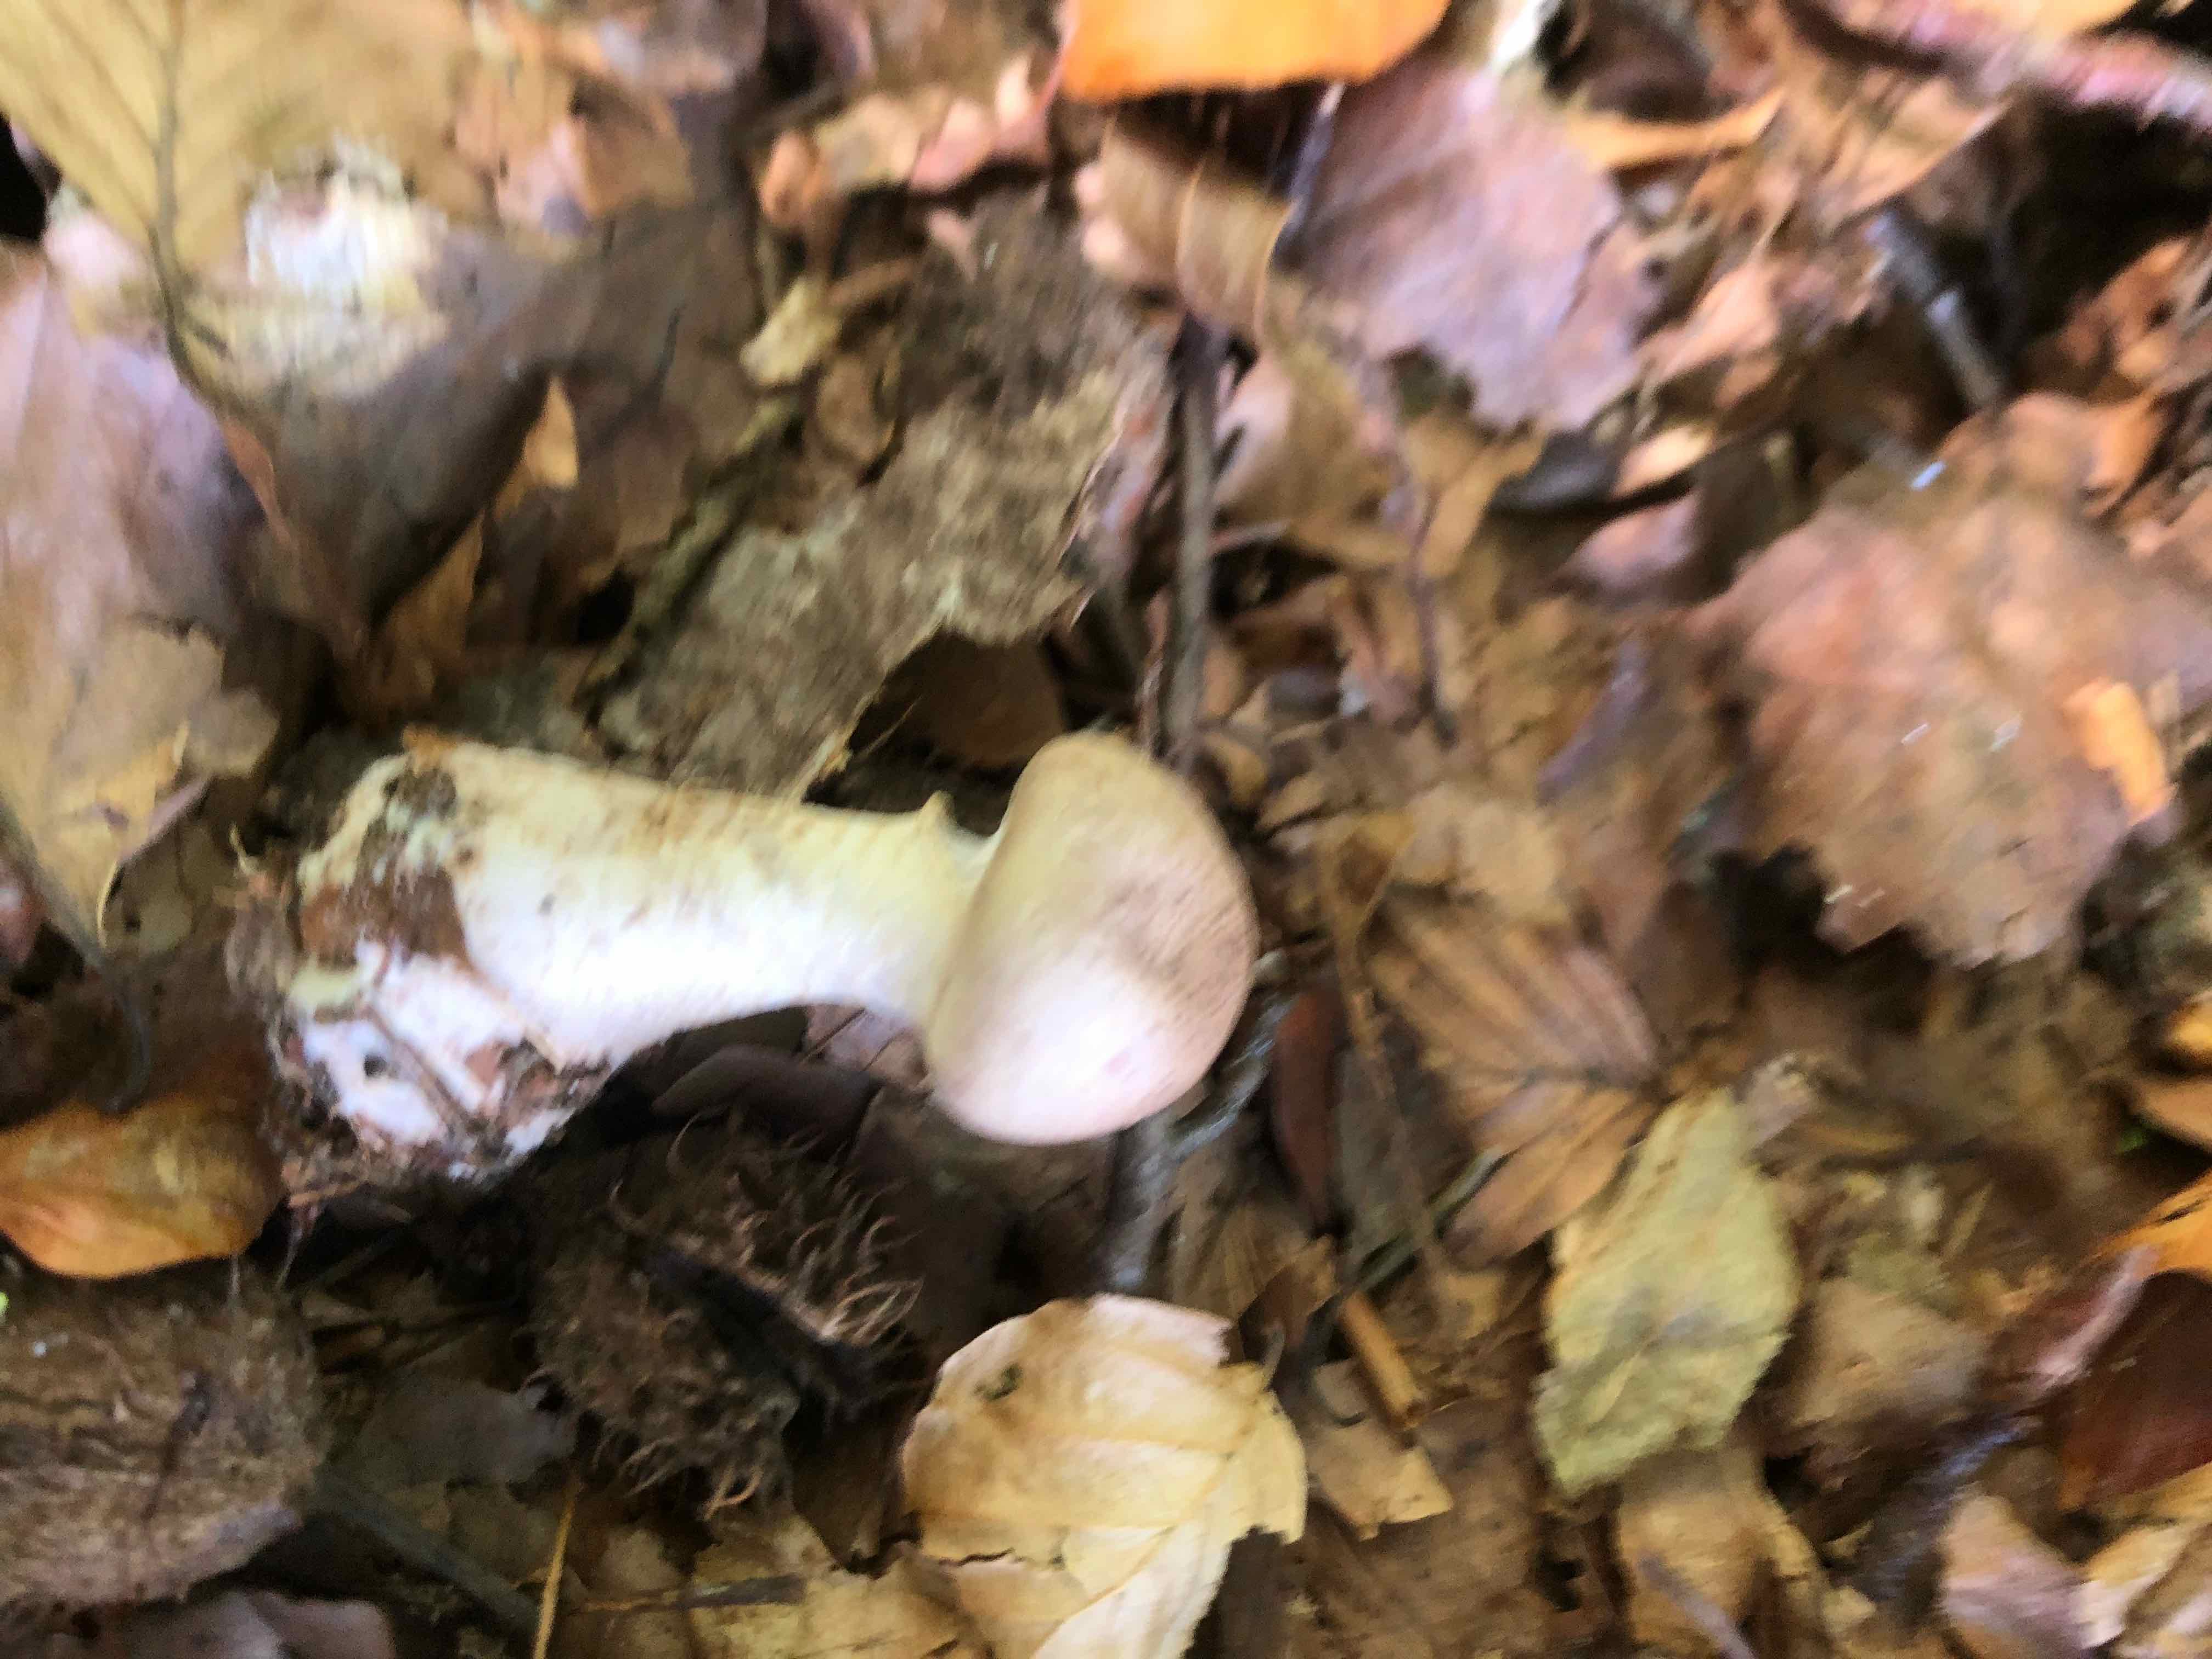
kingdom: Fungi
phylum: Basidiomycota
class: Agaricomycetes
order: Agaricales
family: Cortinariaceae
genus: Cortinarius
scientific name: Cortinarius torvus
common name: champignonagtig slørhat
